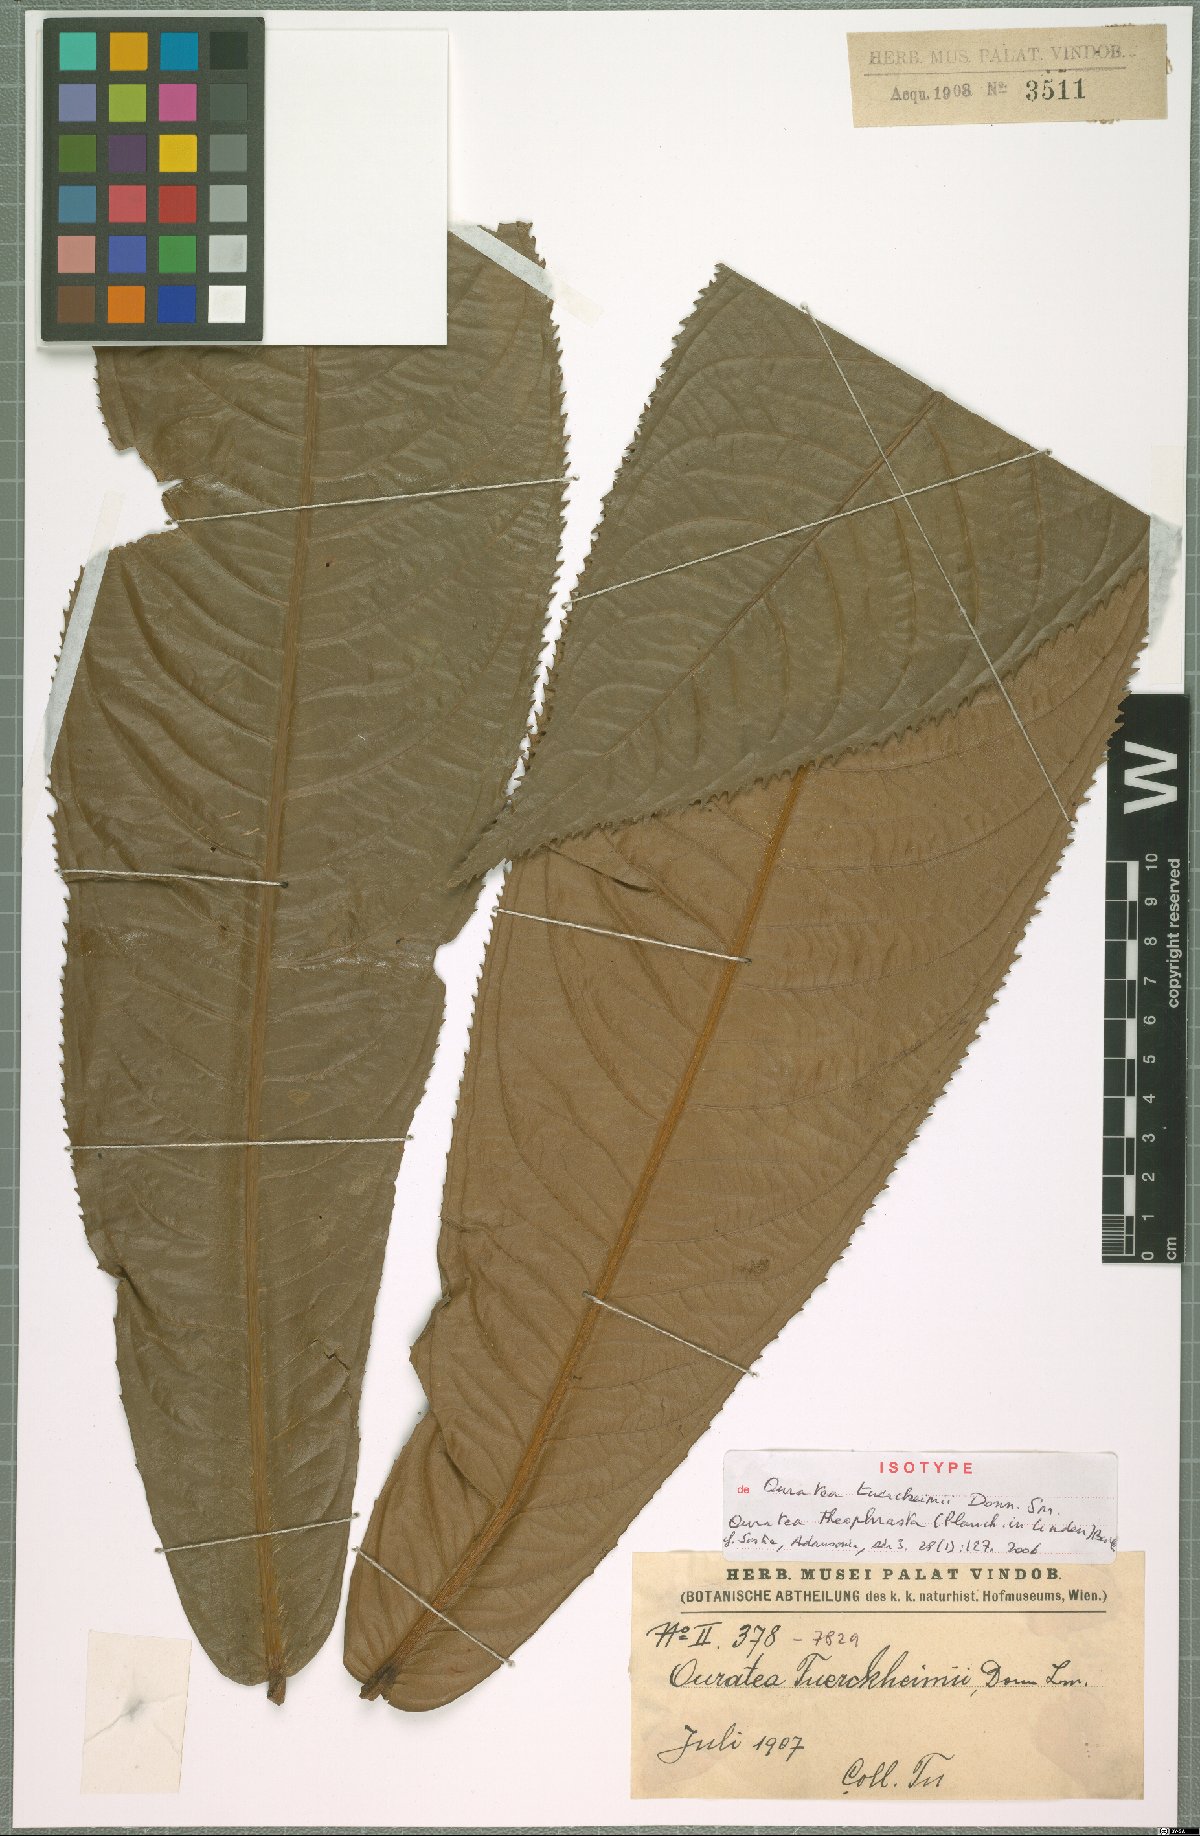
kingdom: Plantae
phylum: Tracheophyta
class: Magnoliopsida
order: Malpighiales
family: Ochnaceae
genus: Ouratea
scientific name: Ouratea theophrasta
